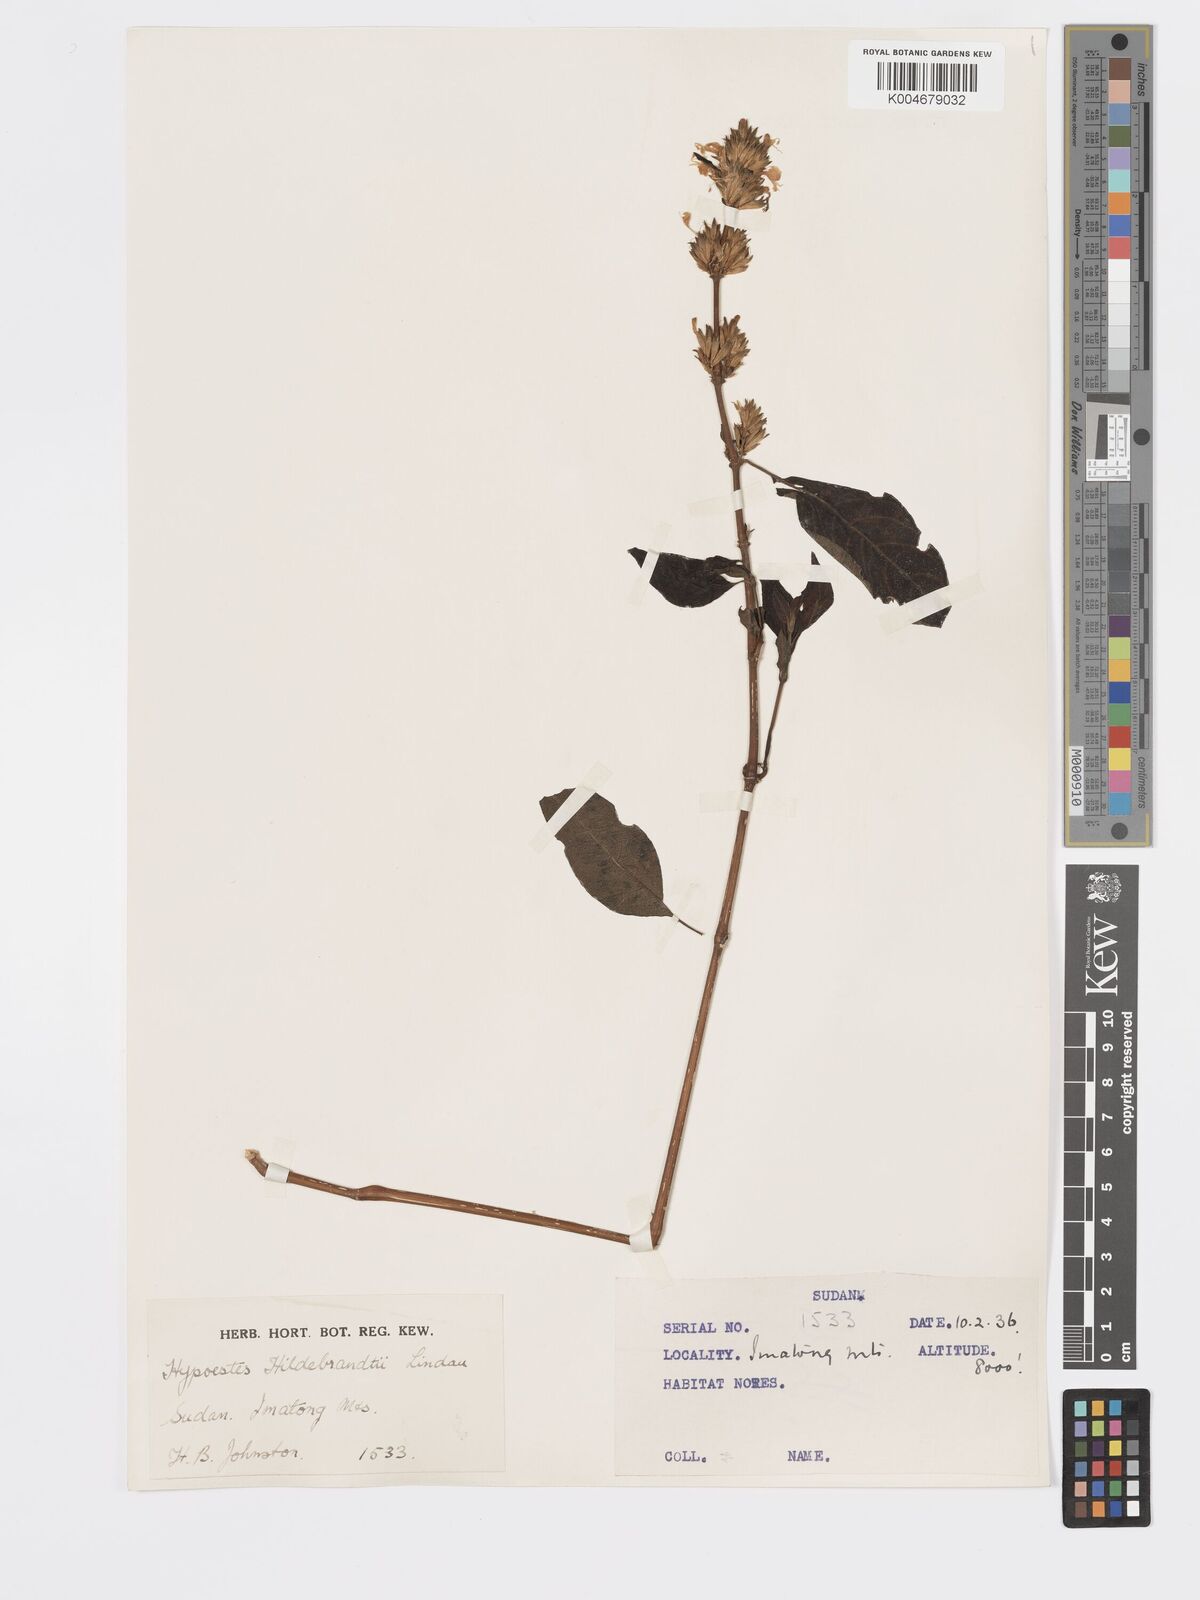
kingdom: Plantae
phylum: Tracheophyta
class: Magnoliopsida
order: Lamiales
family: Acanthaceae
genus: Hypoestes
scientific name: Hypoestes forskaolii
